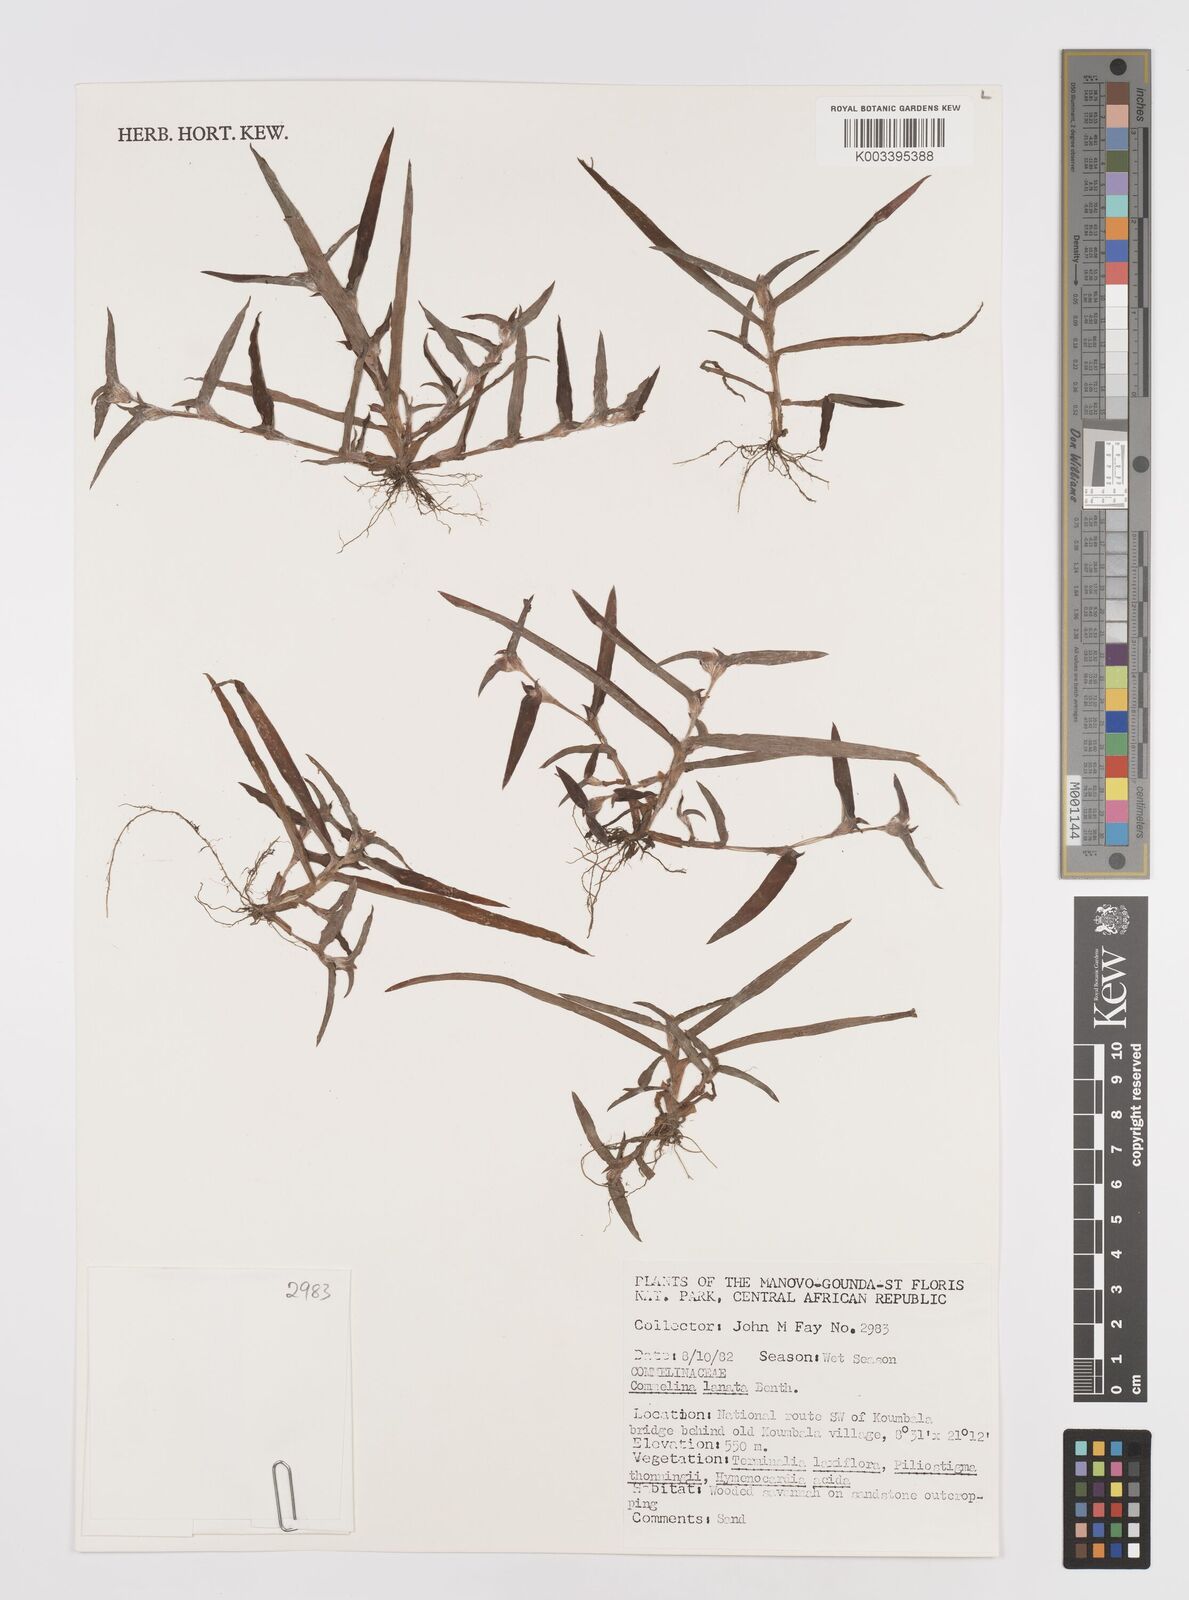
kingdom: Plantae
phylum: Tracheophyta
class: Liliopsida
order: Commelinales
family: Commelinaceae
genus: Cyanotis
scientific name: Cyanotis lanata
